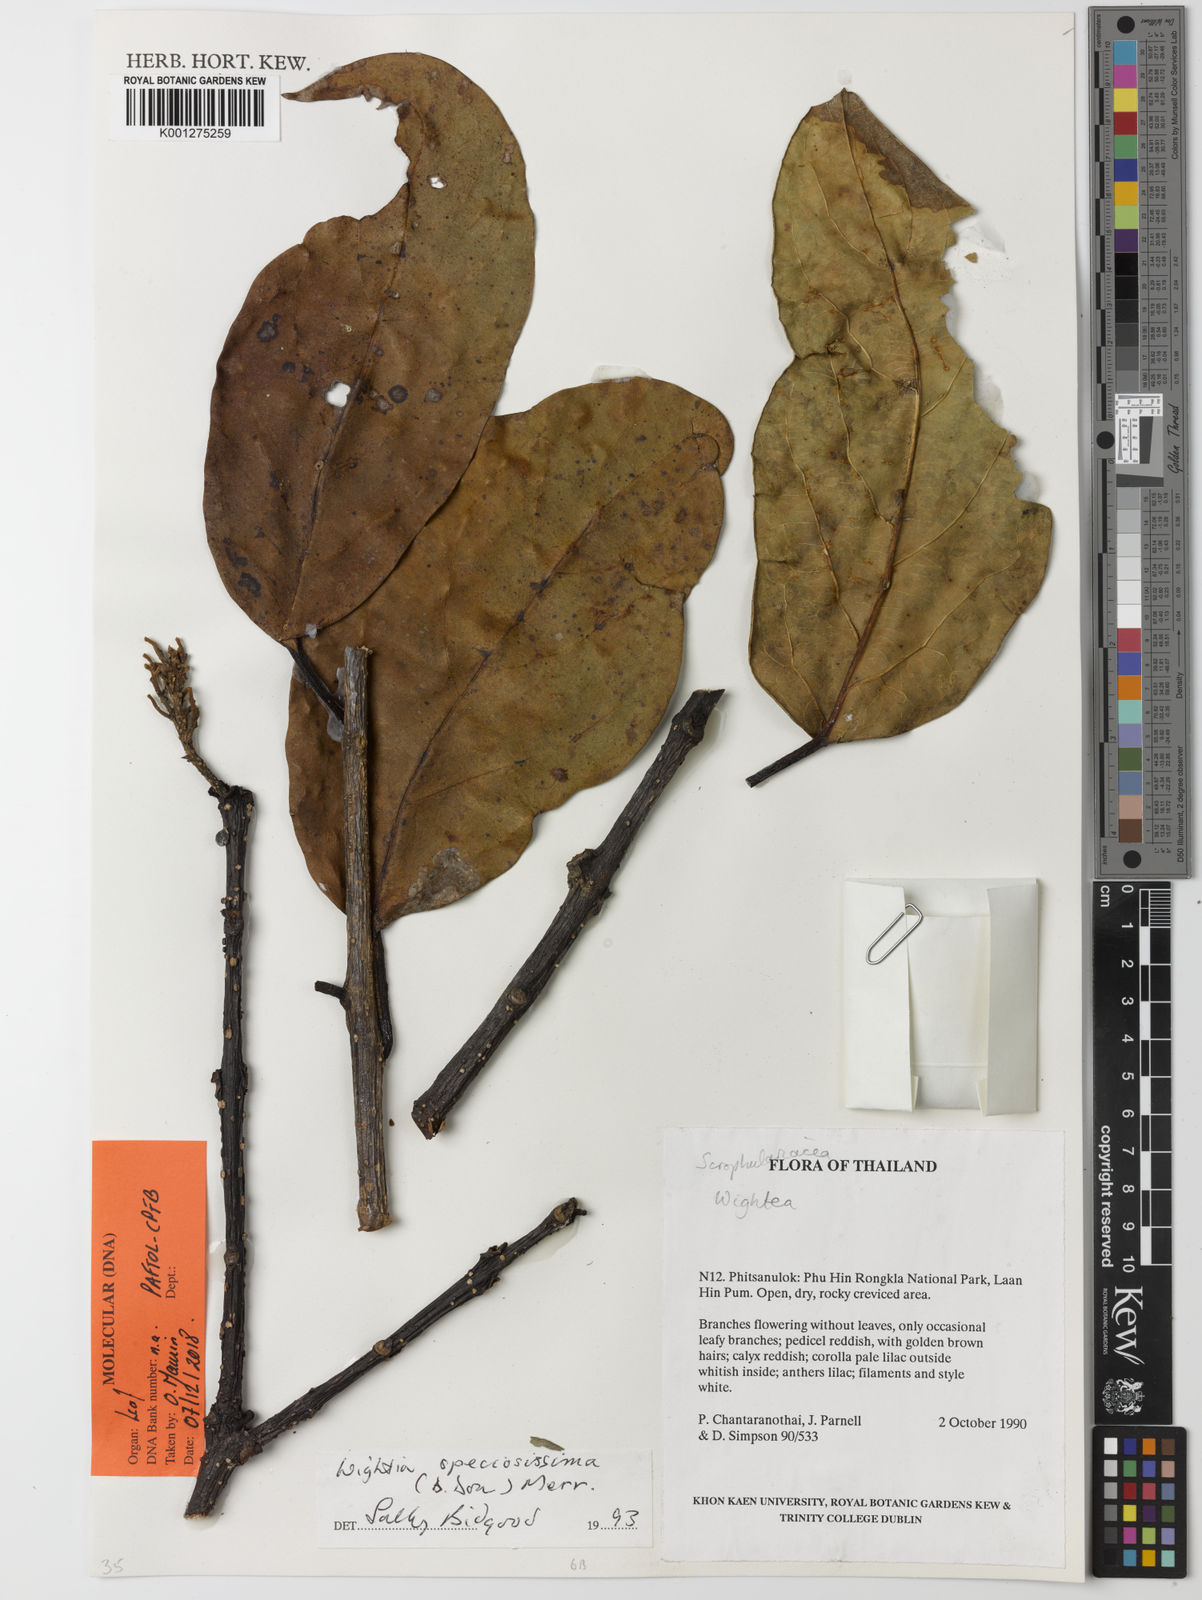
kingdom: Plantae
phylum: Tracheophyta
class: Magnoliopsida
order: Lamiales
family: Wightiaceae
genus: Wightia
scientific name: Wightia speciosissima
